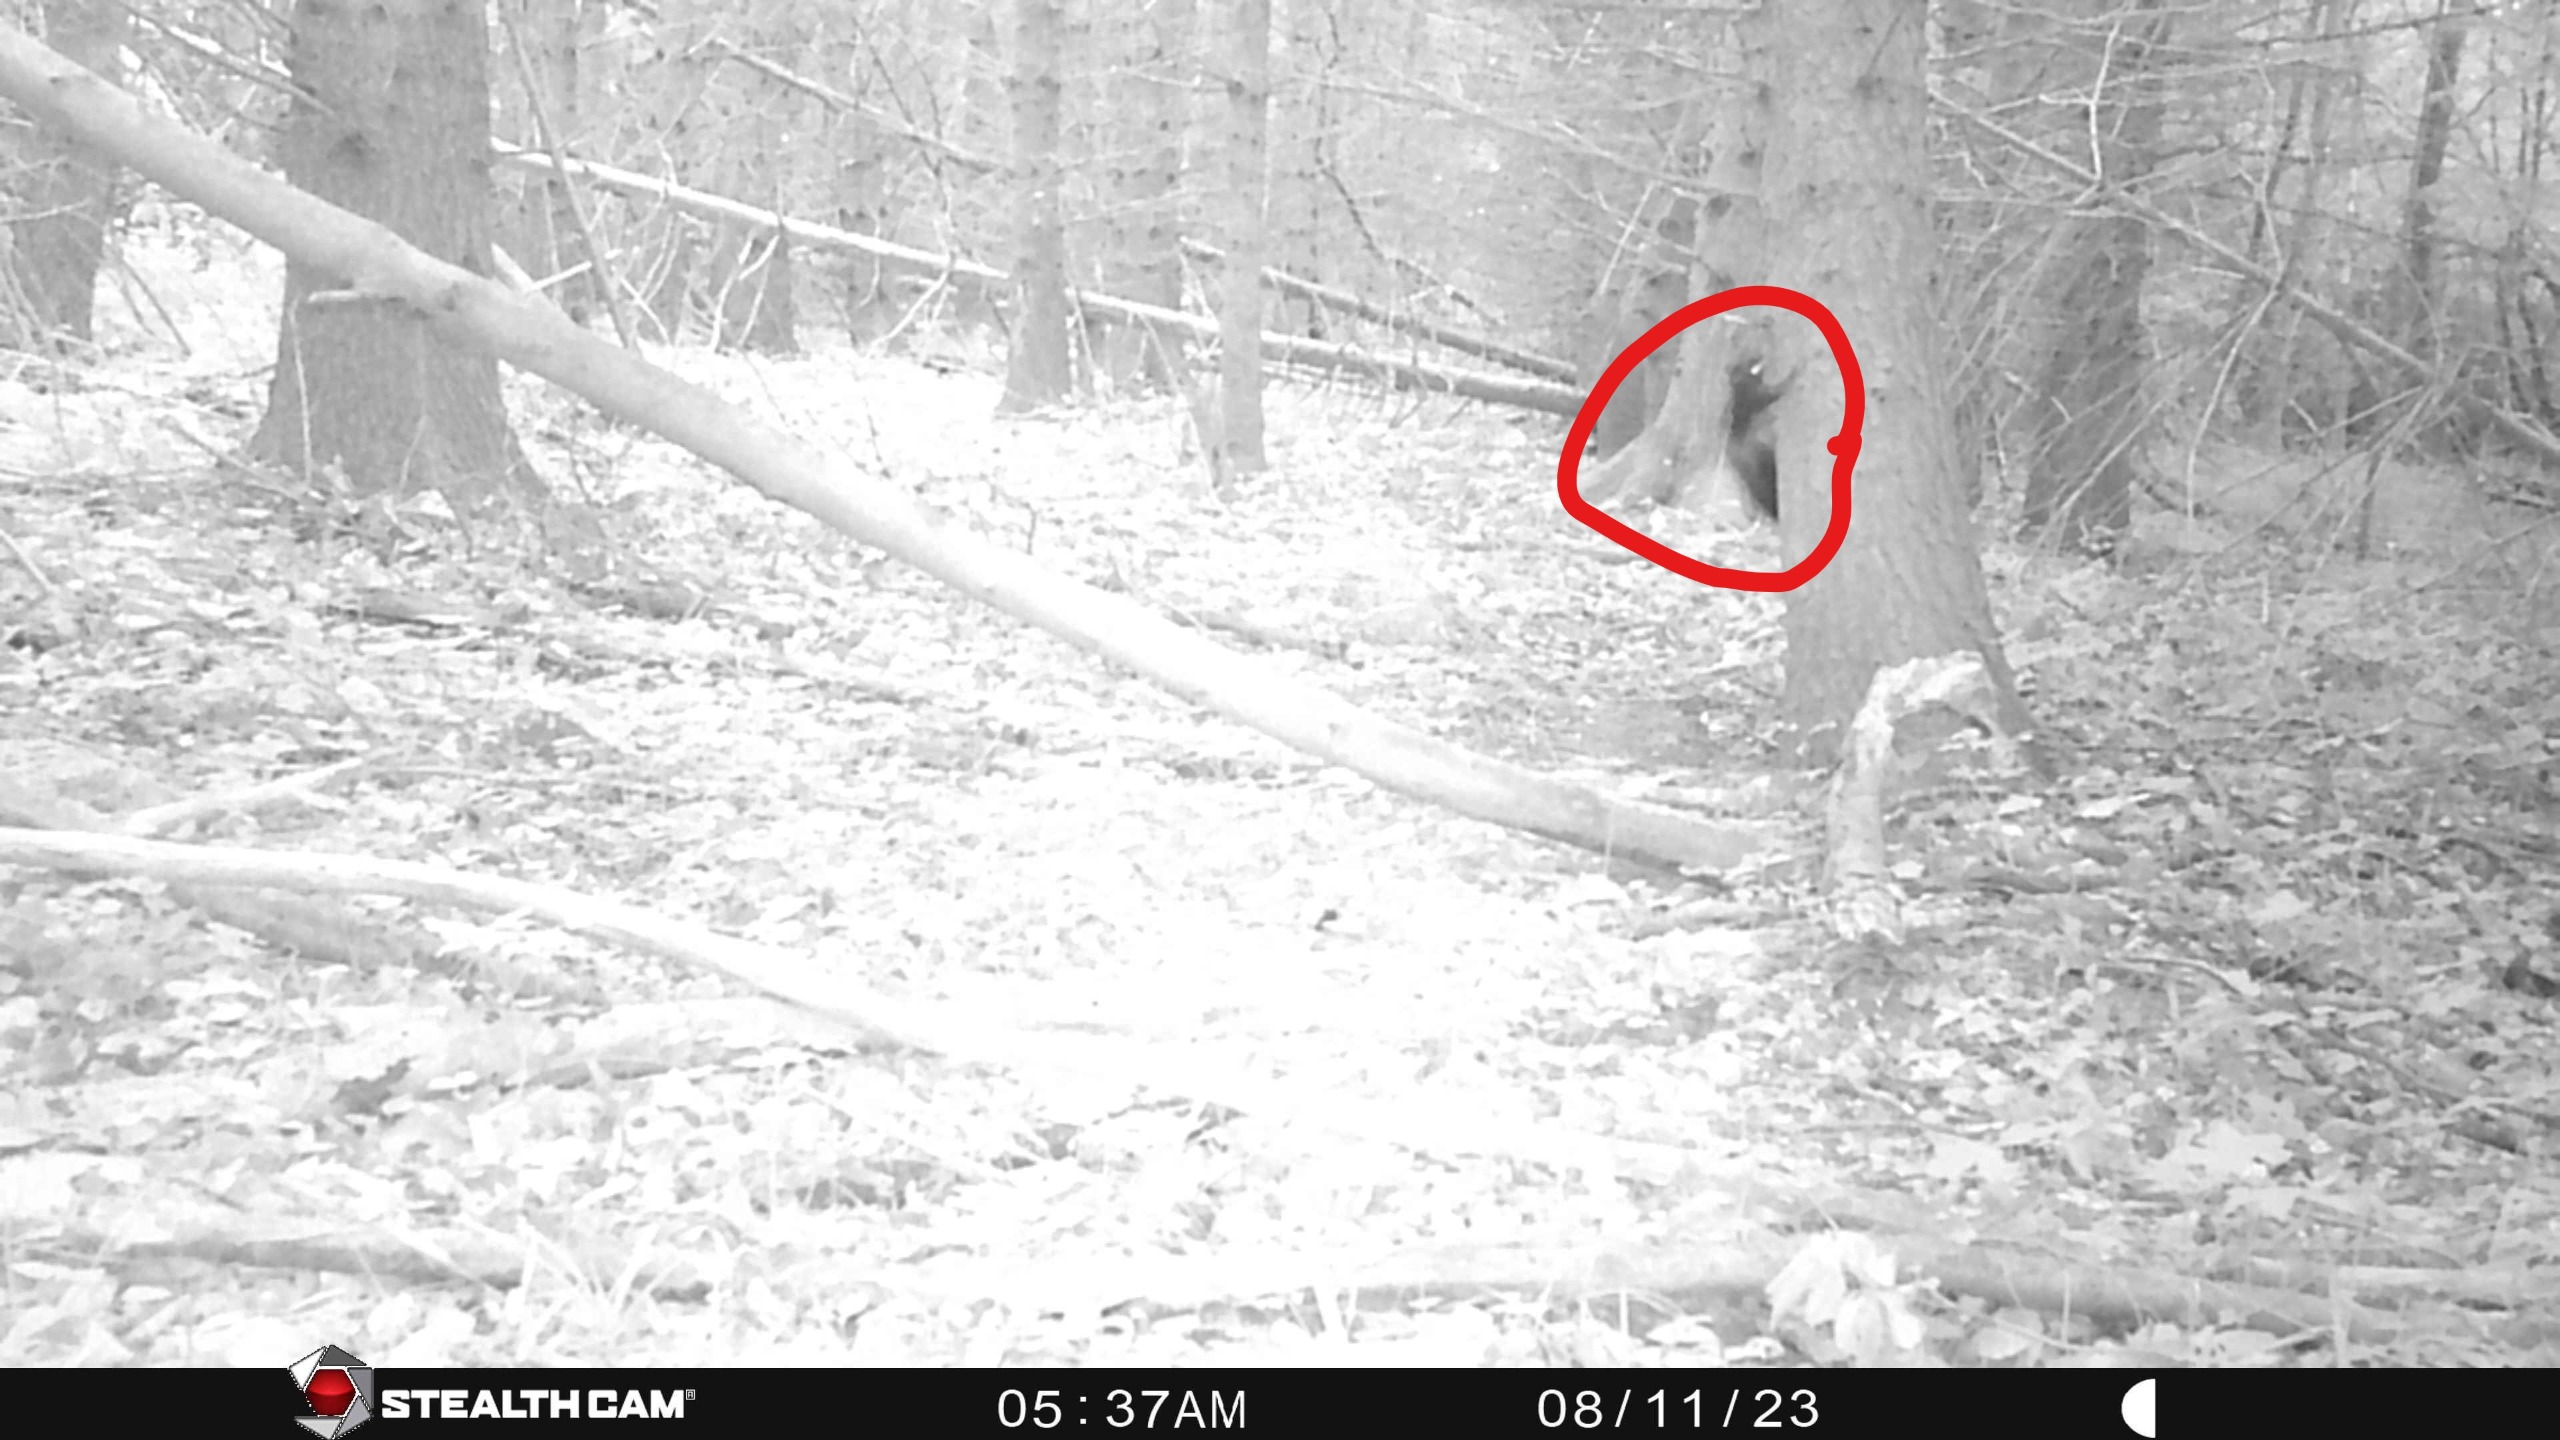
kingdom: Animalia
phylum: Chordata
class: Mammalia
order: Rodentia
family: Sciuridae
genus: Sciurus
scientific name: Sciurus vulgaris
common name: Egern
